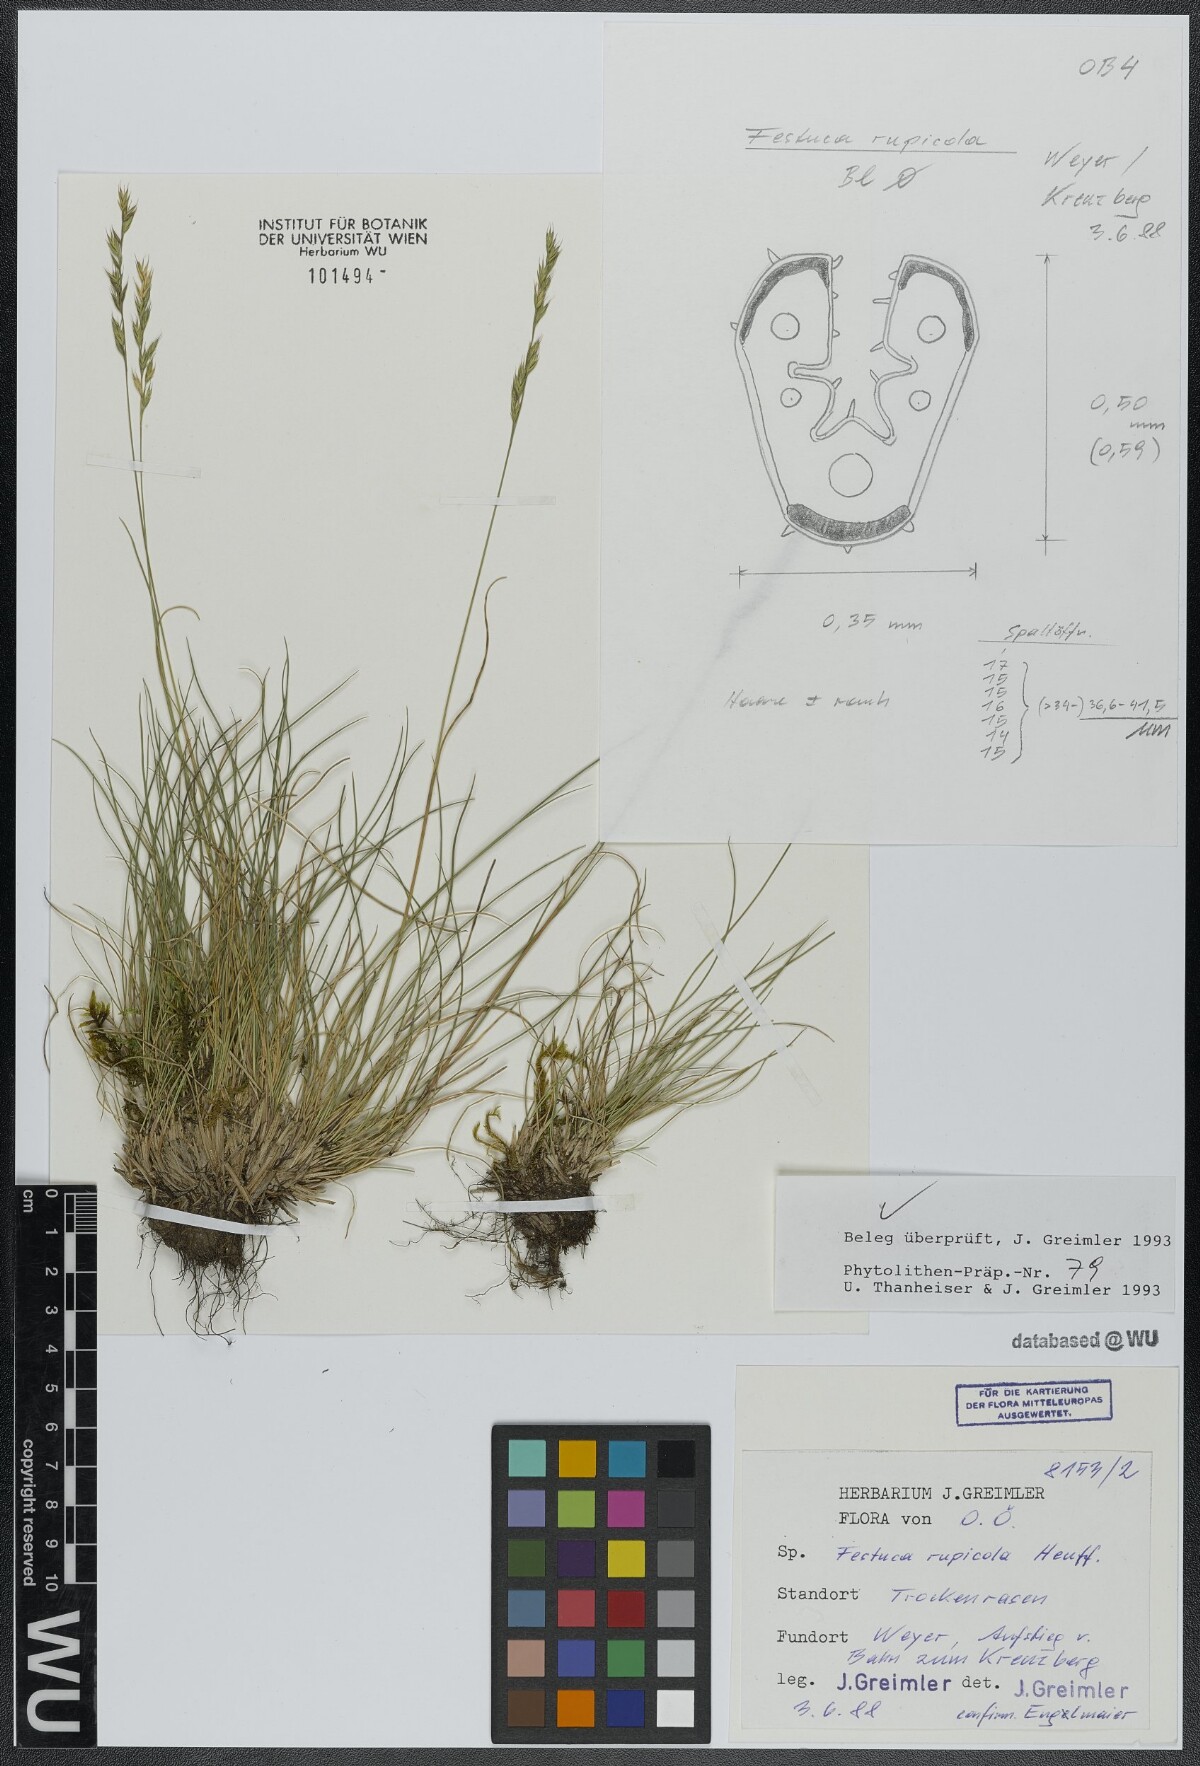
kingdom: Plantae
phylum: Tracheophyta
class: Liliopsida
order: Poales
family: Poaceae
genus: Festuca
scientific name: Festuca rupicola
